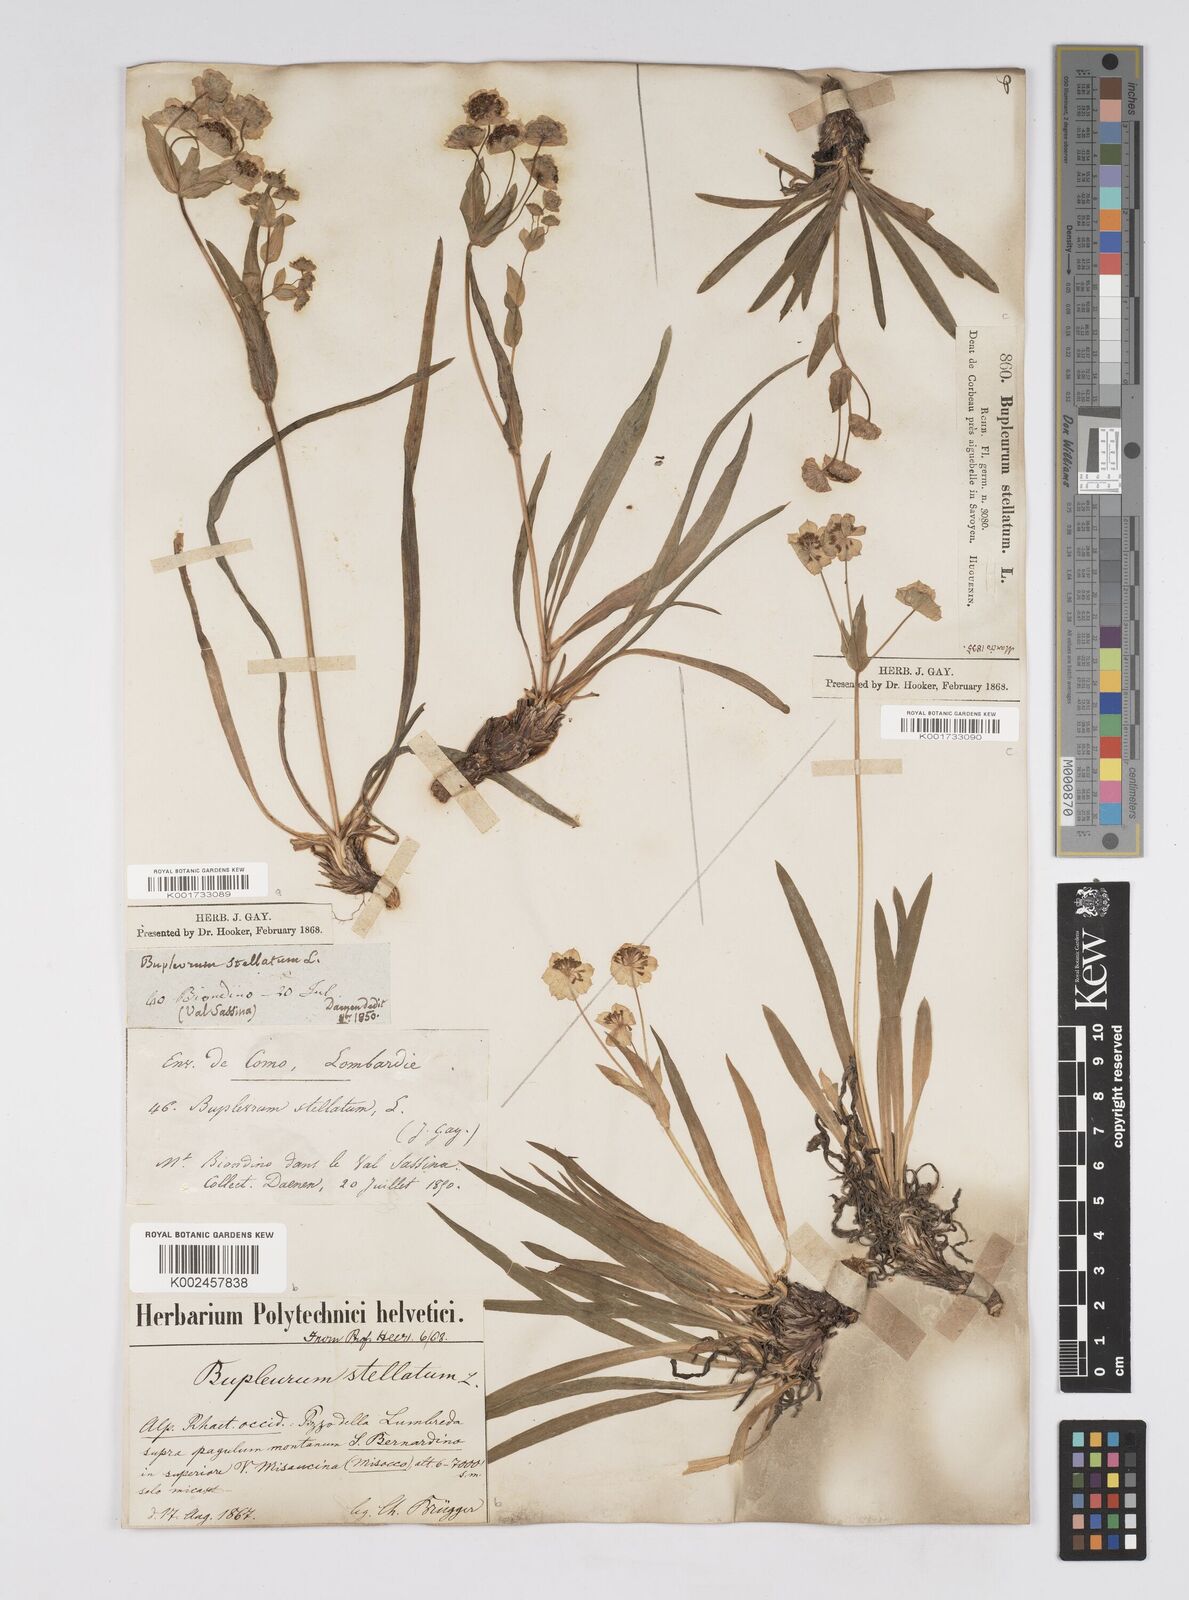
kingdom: Plantae
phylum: Tracheophyta
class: Magnoliopsida
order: Apiales
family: Apiaceae
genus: Bupleurum
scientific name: Bupleurum stellatum
